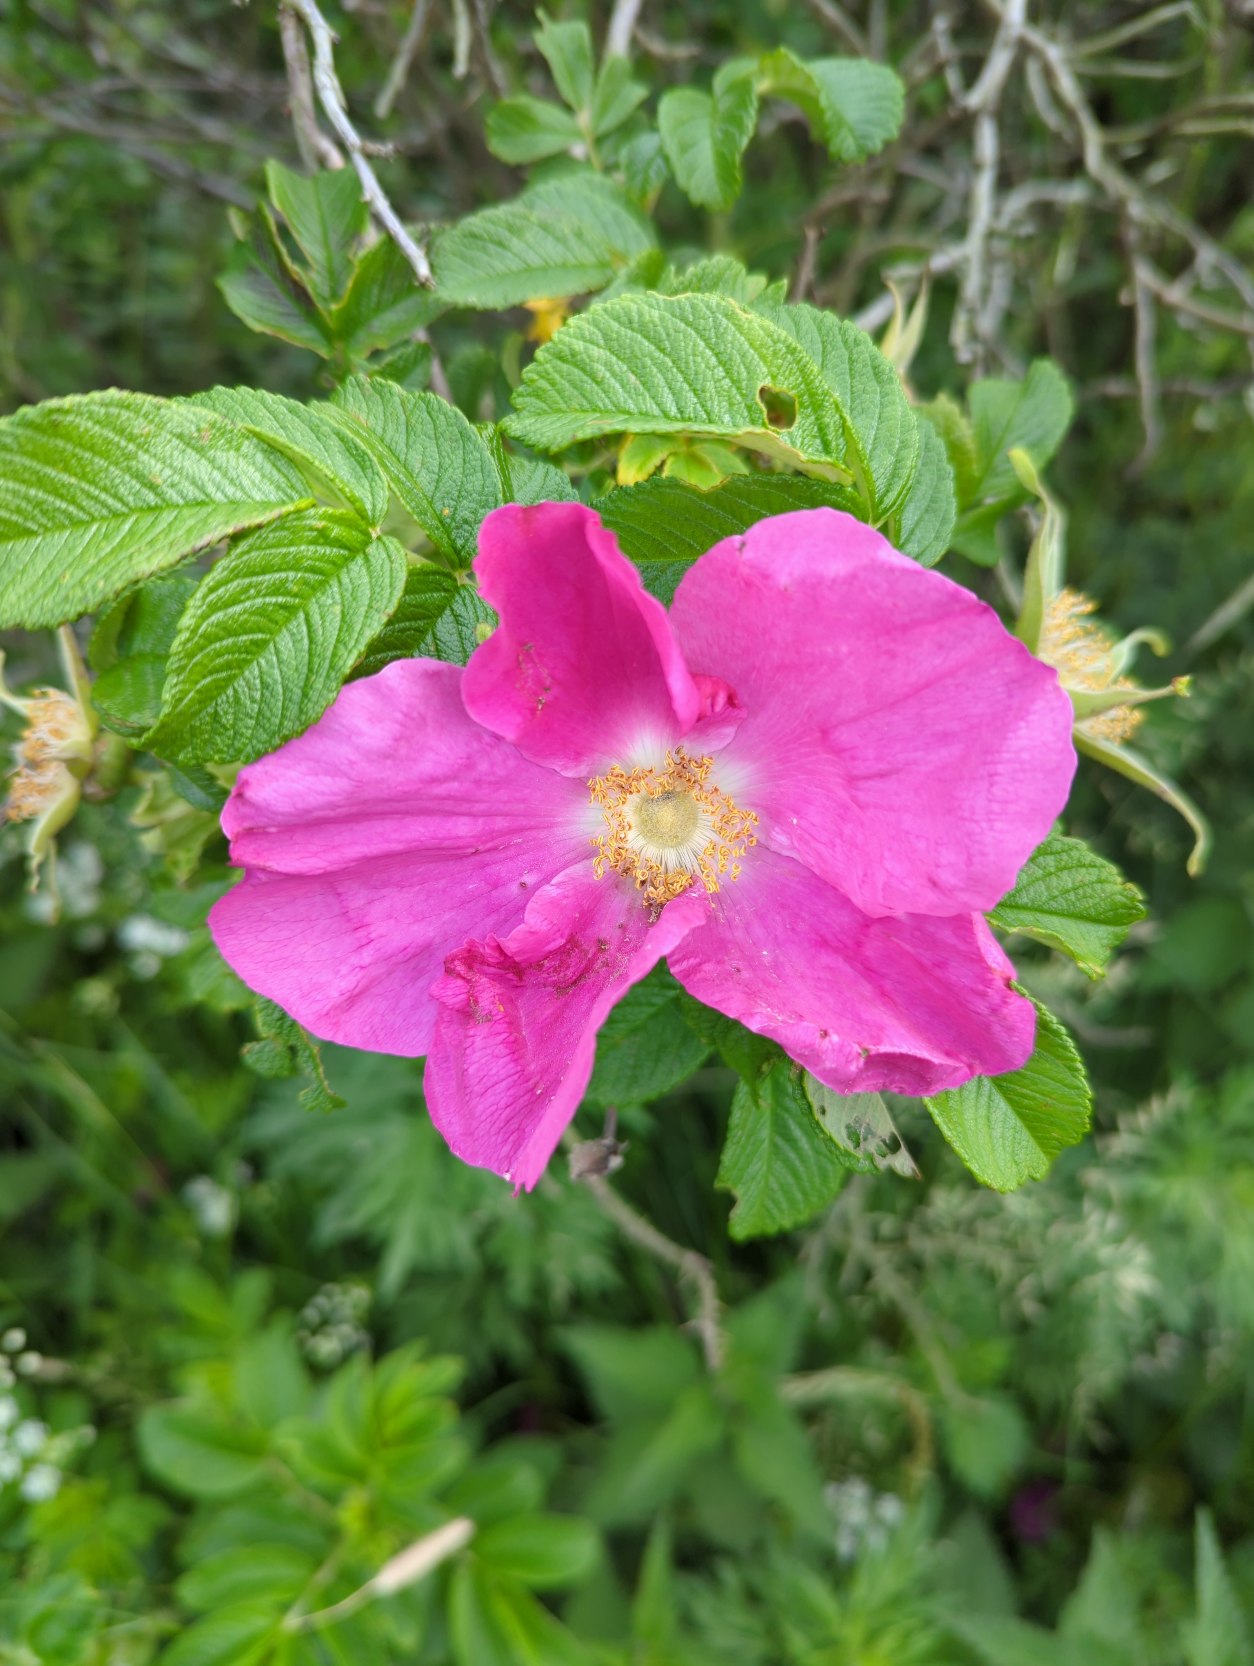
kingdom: Plantae
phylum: Tracheophyta
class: Magnoliopsida
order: Rosales
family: Rosaceae
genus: Rosa
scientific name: Rosa rugosa
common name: Rynket rose
